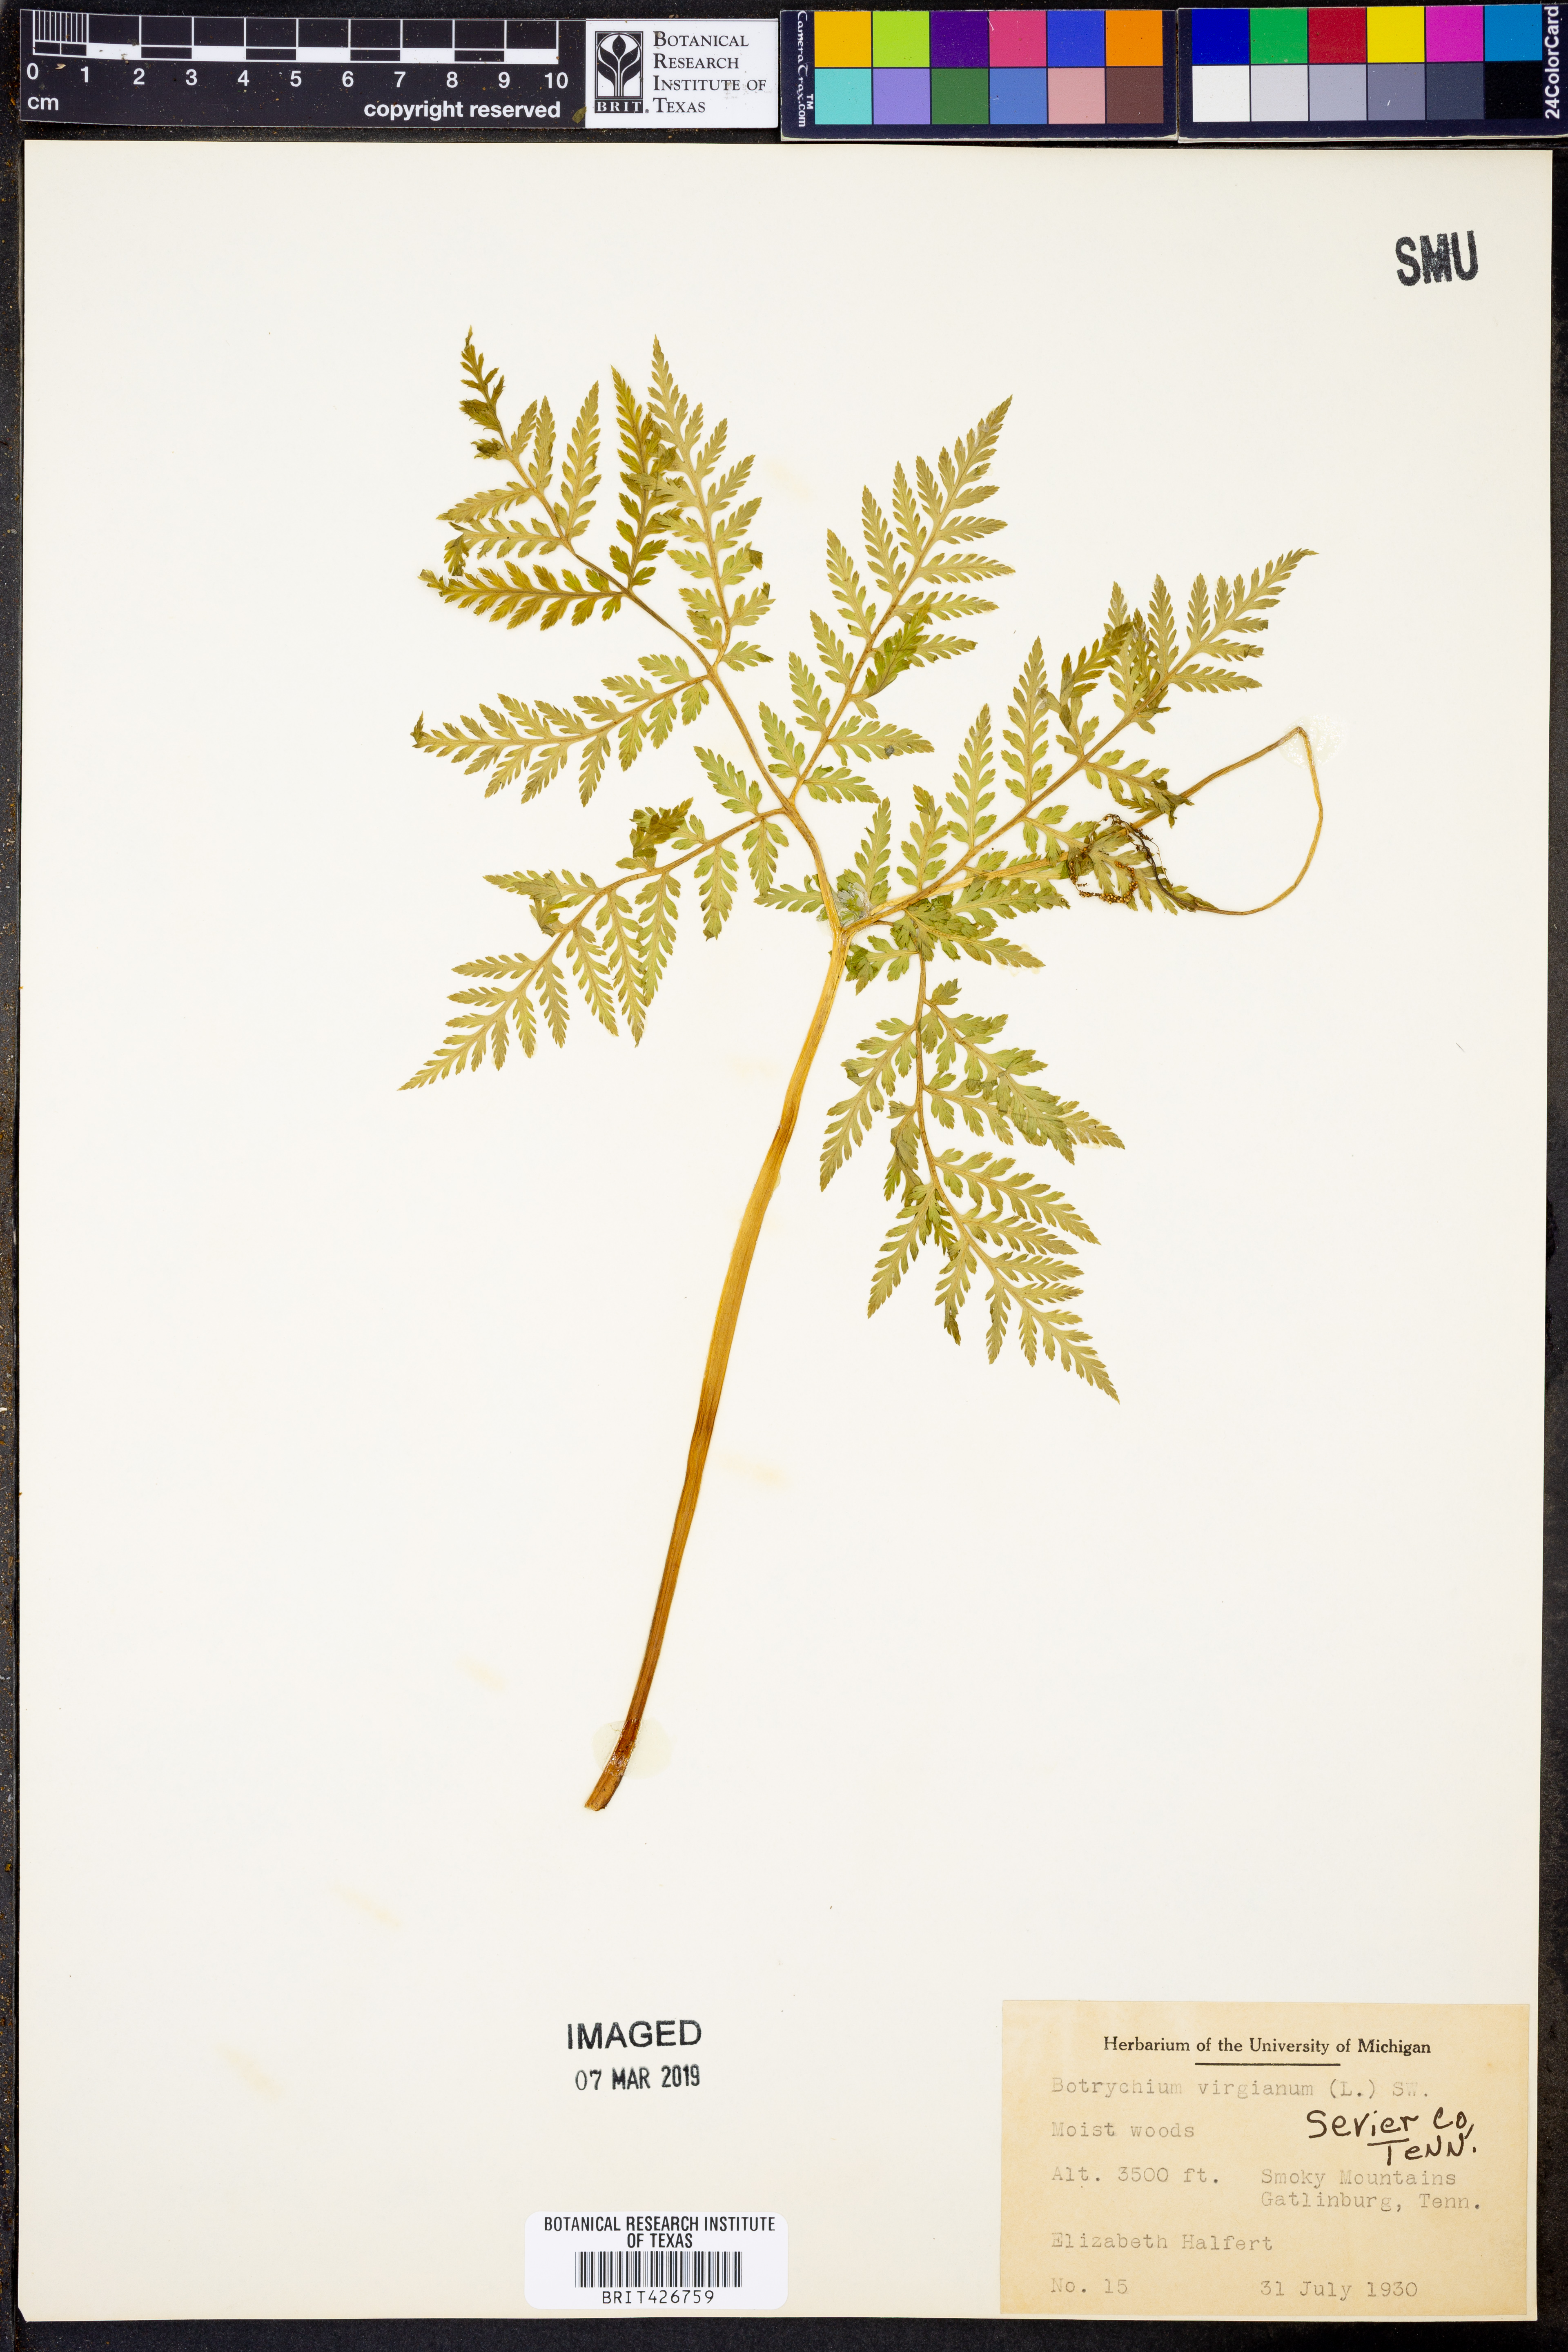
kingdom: Plantae
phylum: Tracheophyta
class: Polypodiopsida
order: Ophioglossales
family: Ophioglossaceae
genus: Botrypus
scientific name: Botrypus virginianus
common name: Common grapefern
